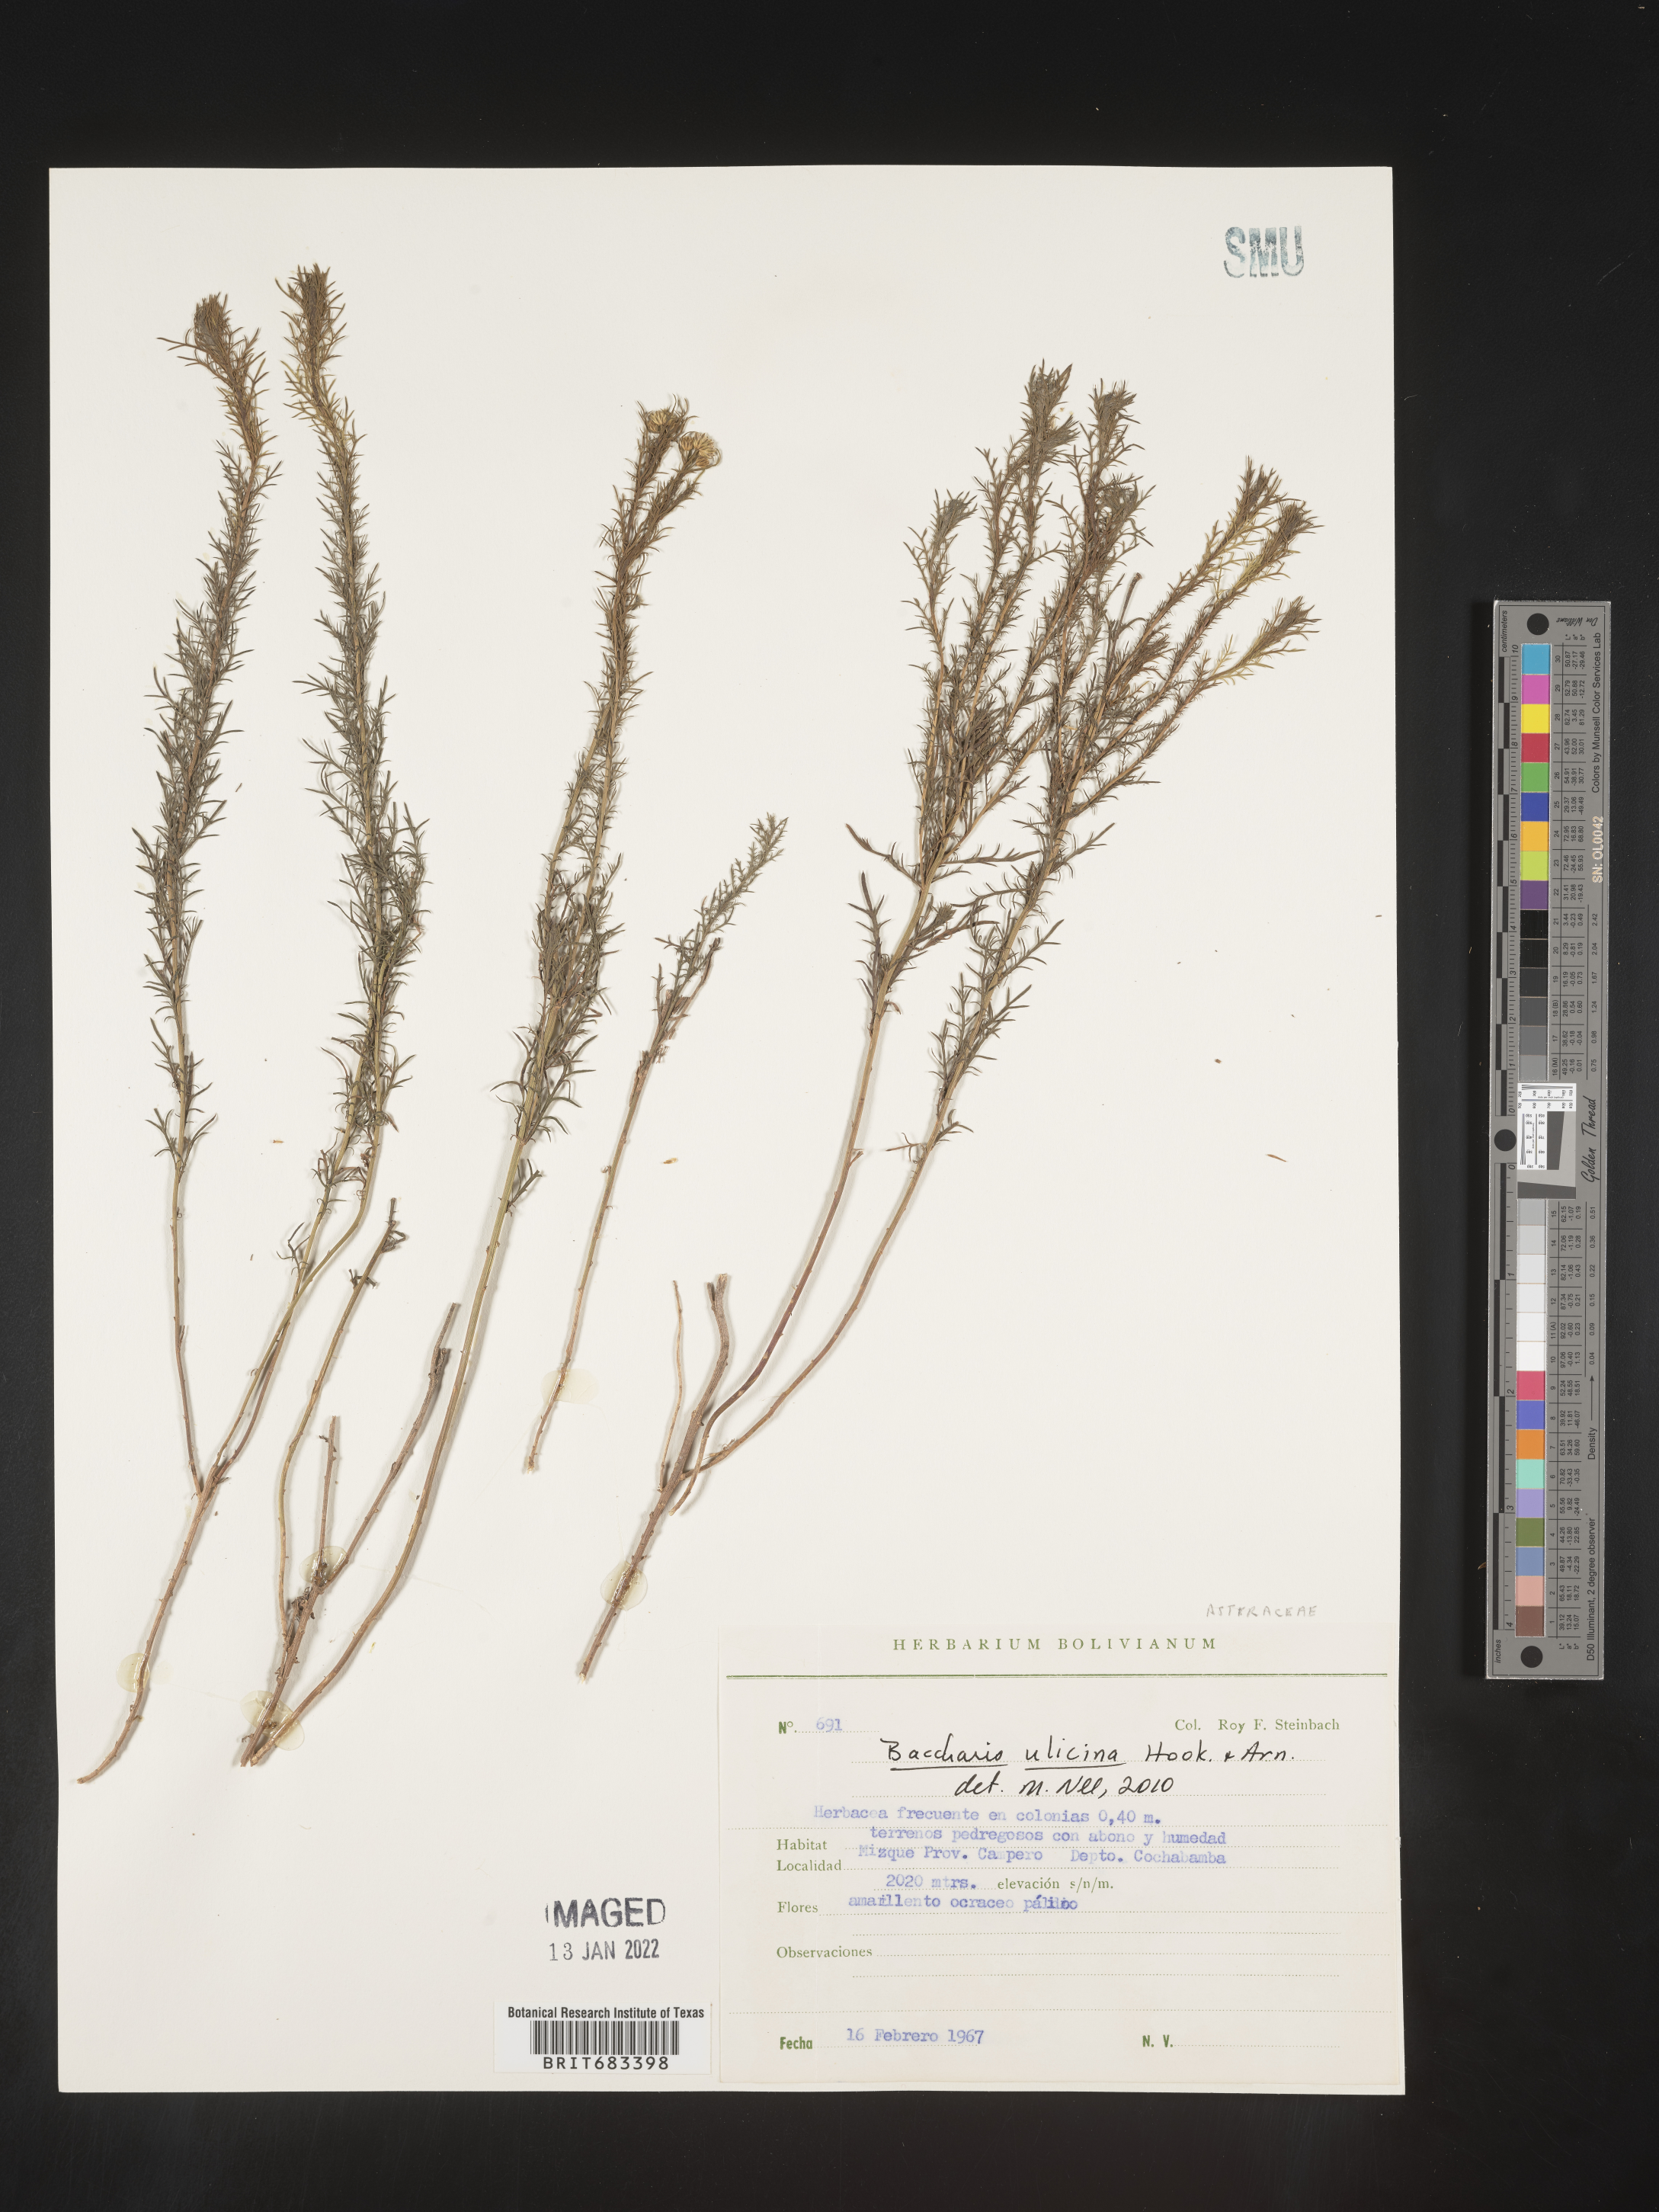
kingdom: Plantae
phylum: Tracheophyta
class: Magnoliopsida
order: Asterales
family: Asteraceae
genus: Baccharis
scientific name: Baccharis
